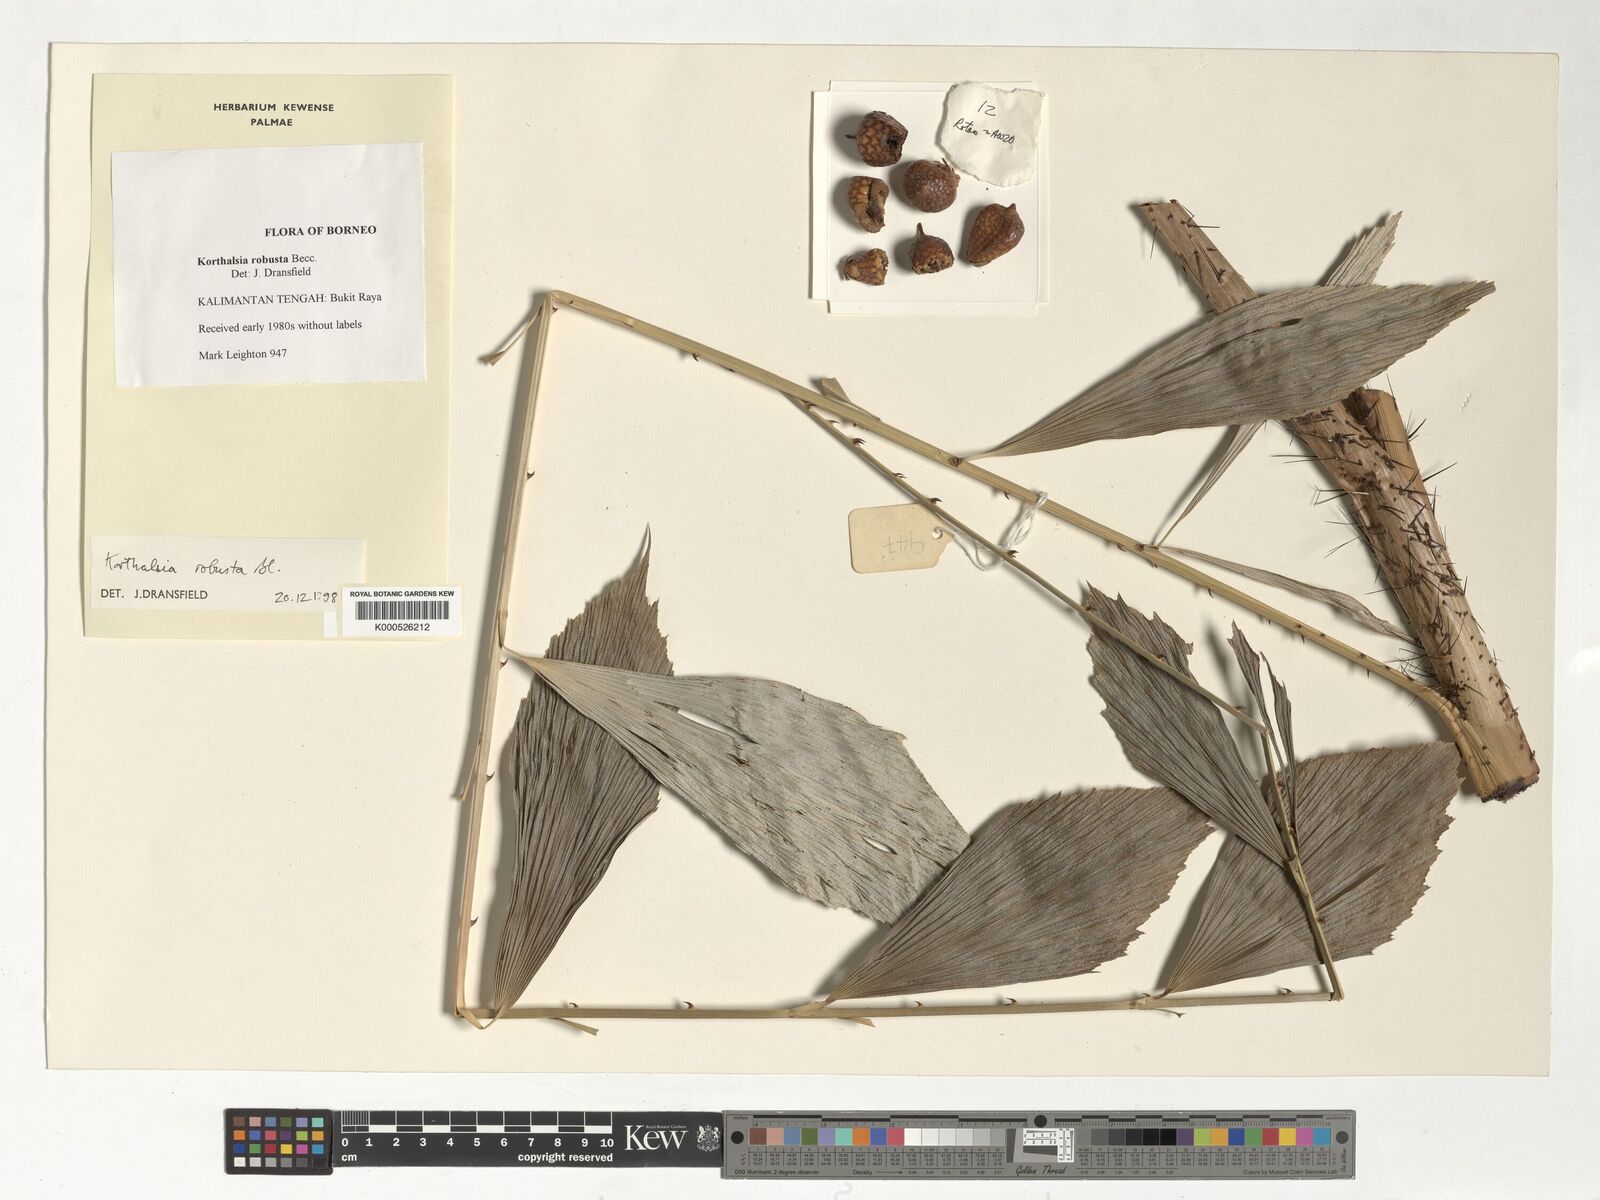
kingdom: Plantae
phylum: Tracheophyta
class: Liliopsida
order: Arecales
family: Arecaceae
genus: Korthalsia
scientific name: Korthalsia robusta
